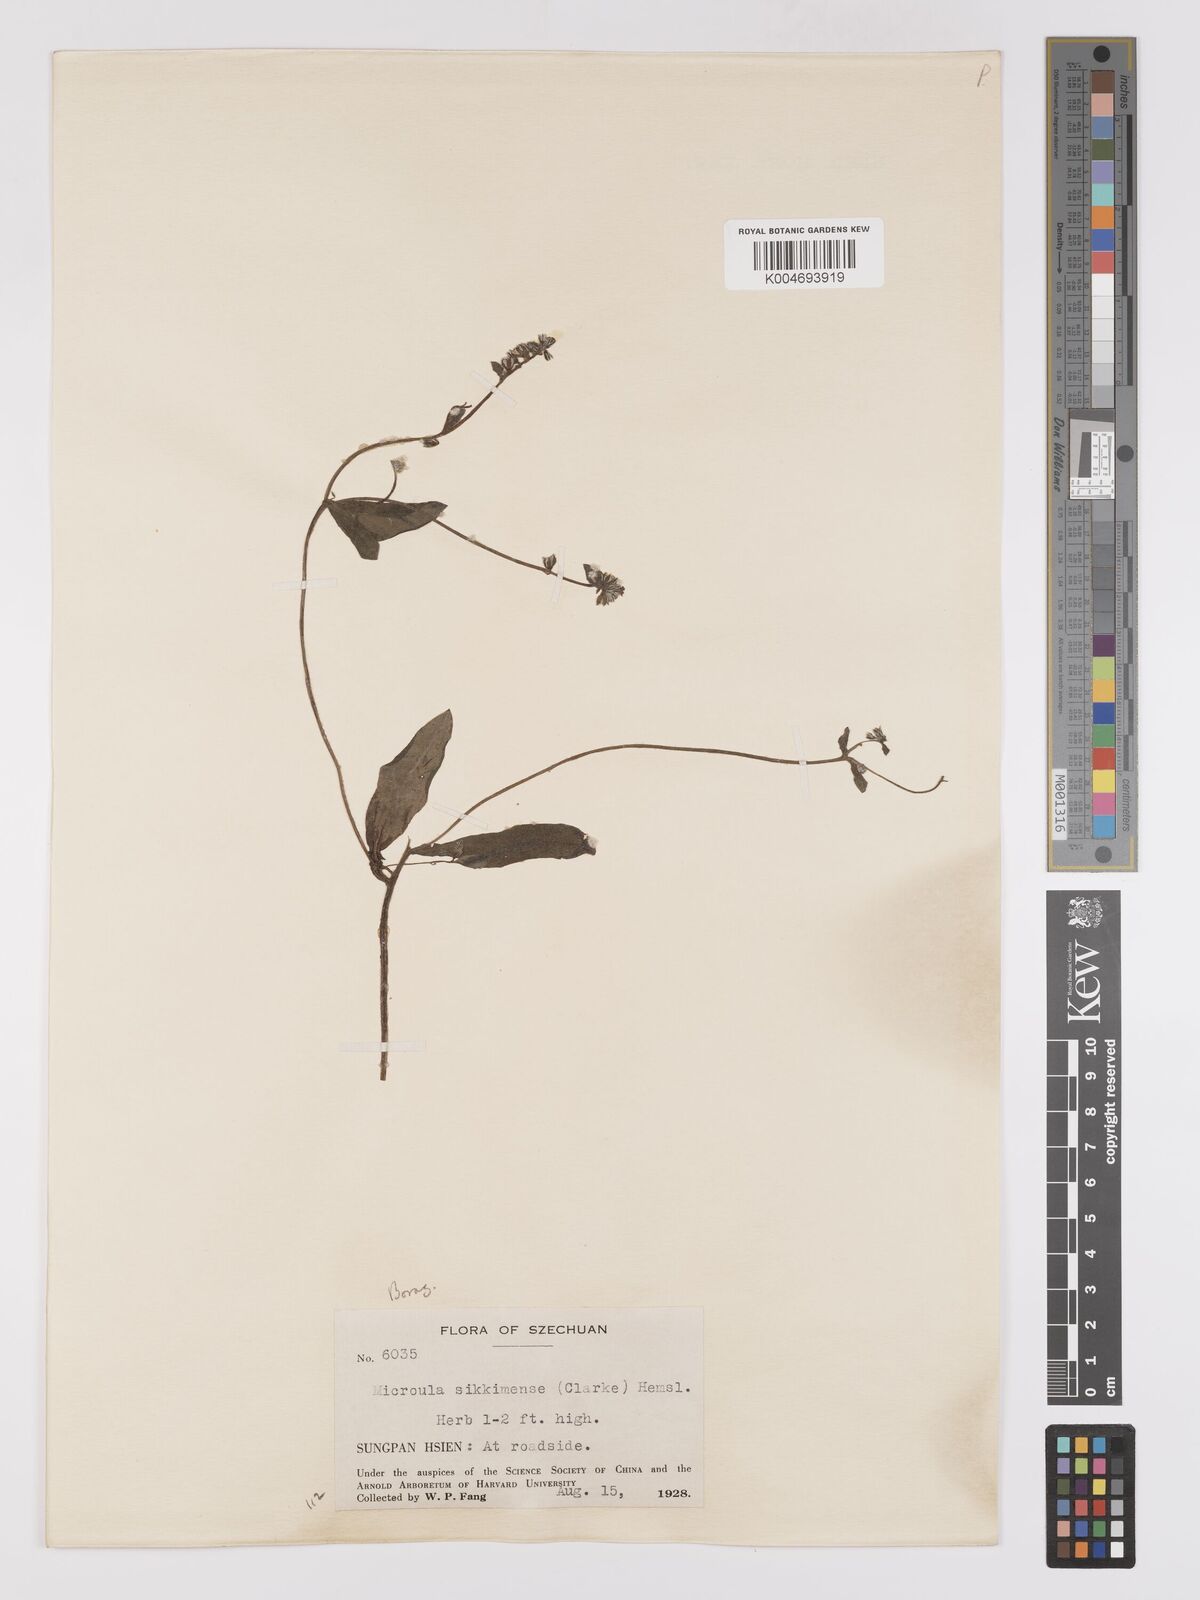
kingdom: Plantae
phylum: Tracheophyta
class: Magnoliopsida
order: Boraginales
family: Boraginaceae
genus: Microula
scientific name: Microula sikkimensis
